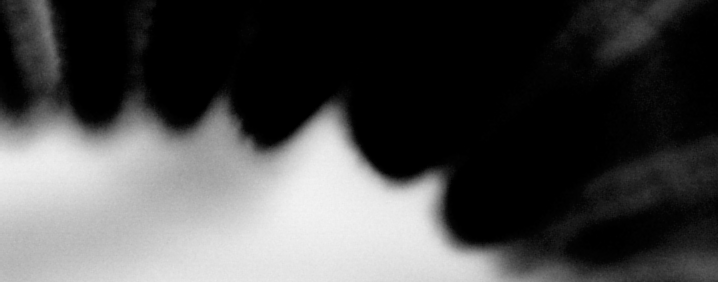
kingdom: Animalia
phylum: Chordata
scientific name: Chordata
